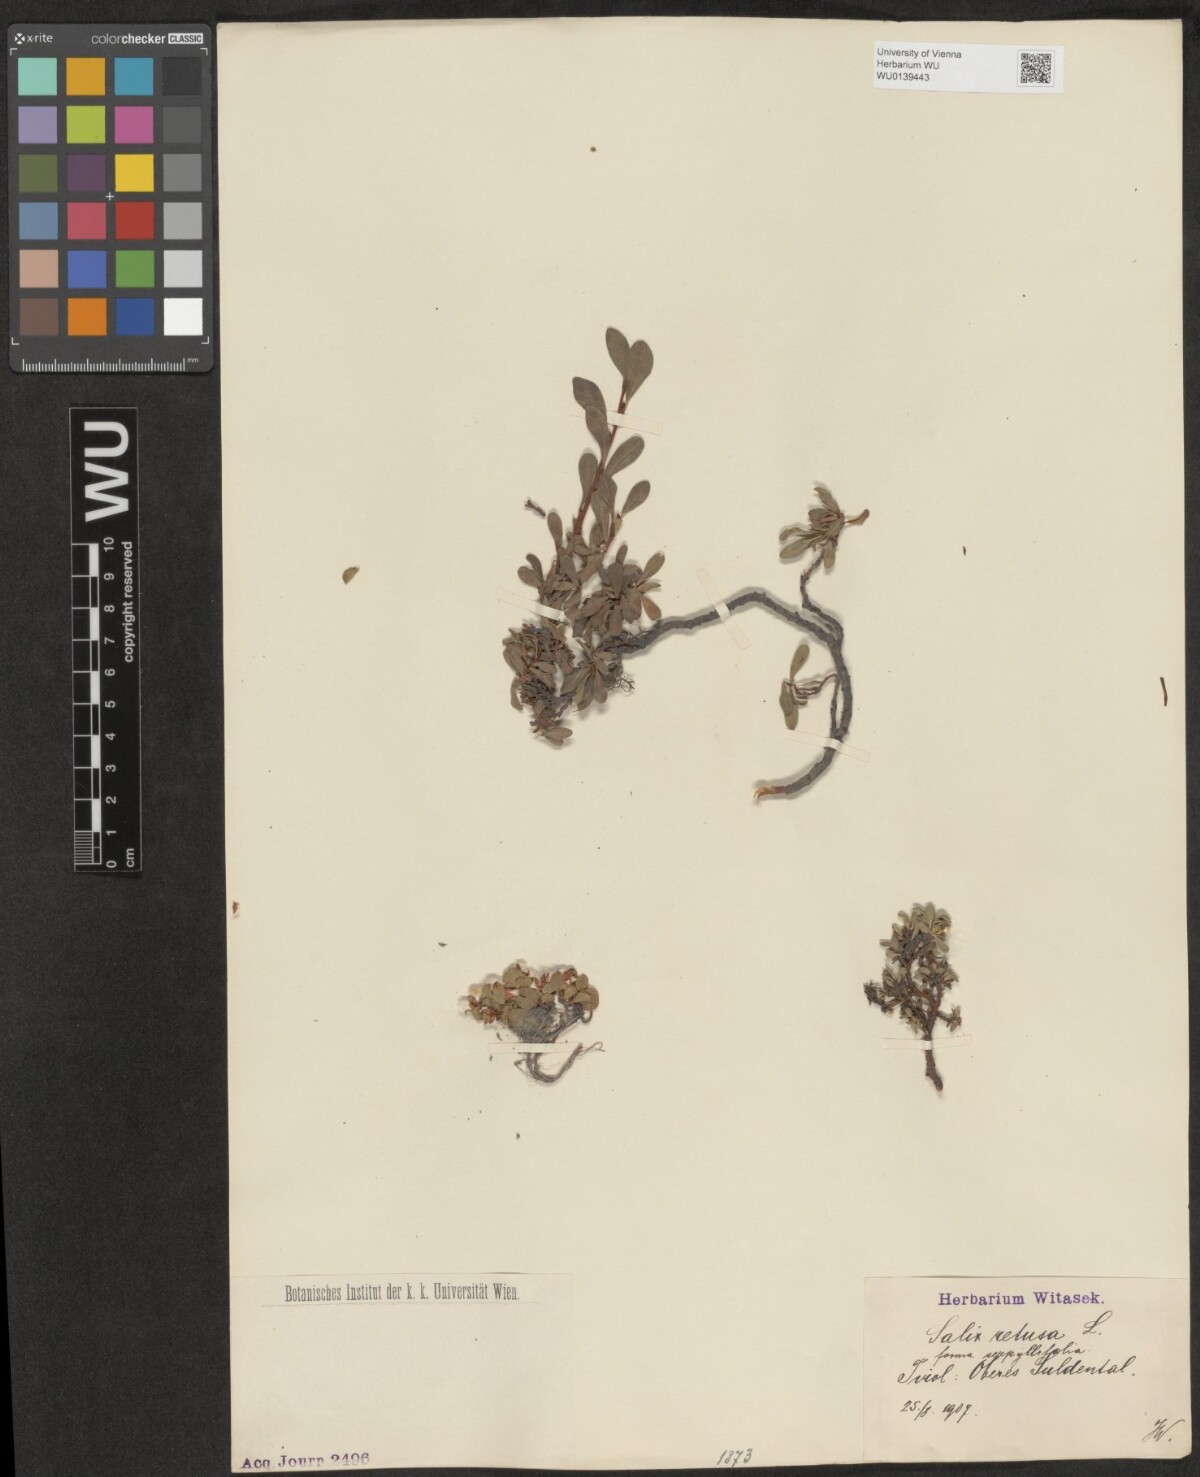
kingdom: Plantae
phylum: Tracheophyta
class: Magnoliopsida
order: Malpighiales
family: Salicaceae
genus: Salix
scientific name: Salix retusa
